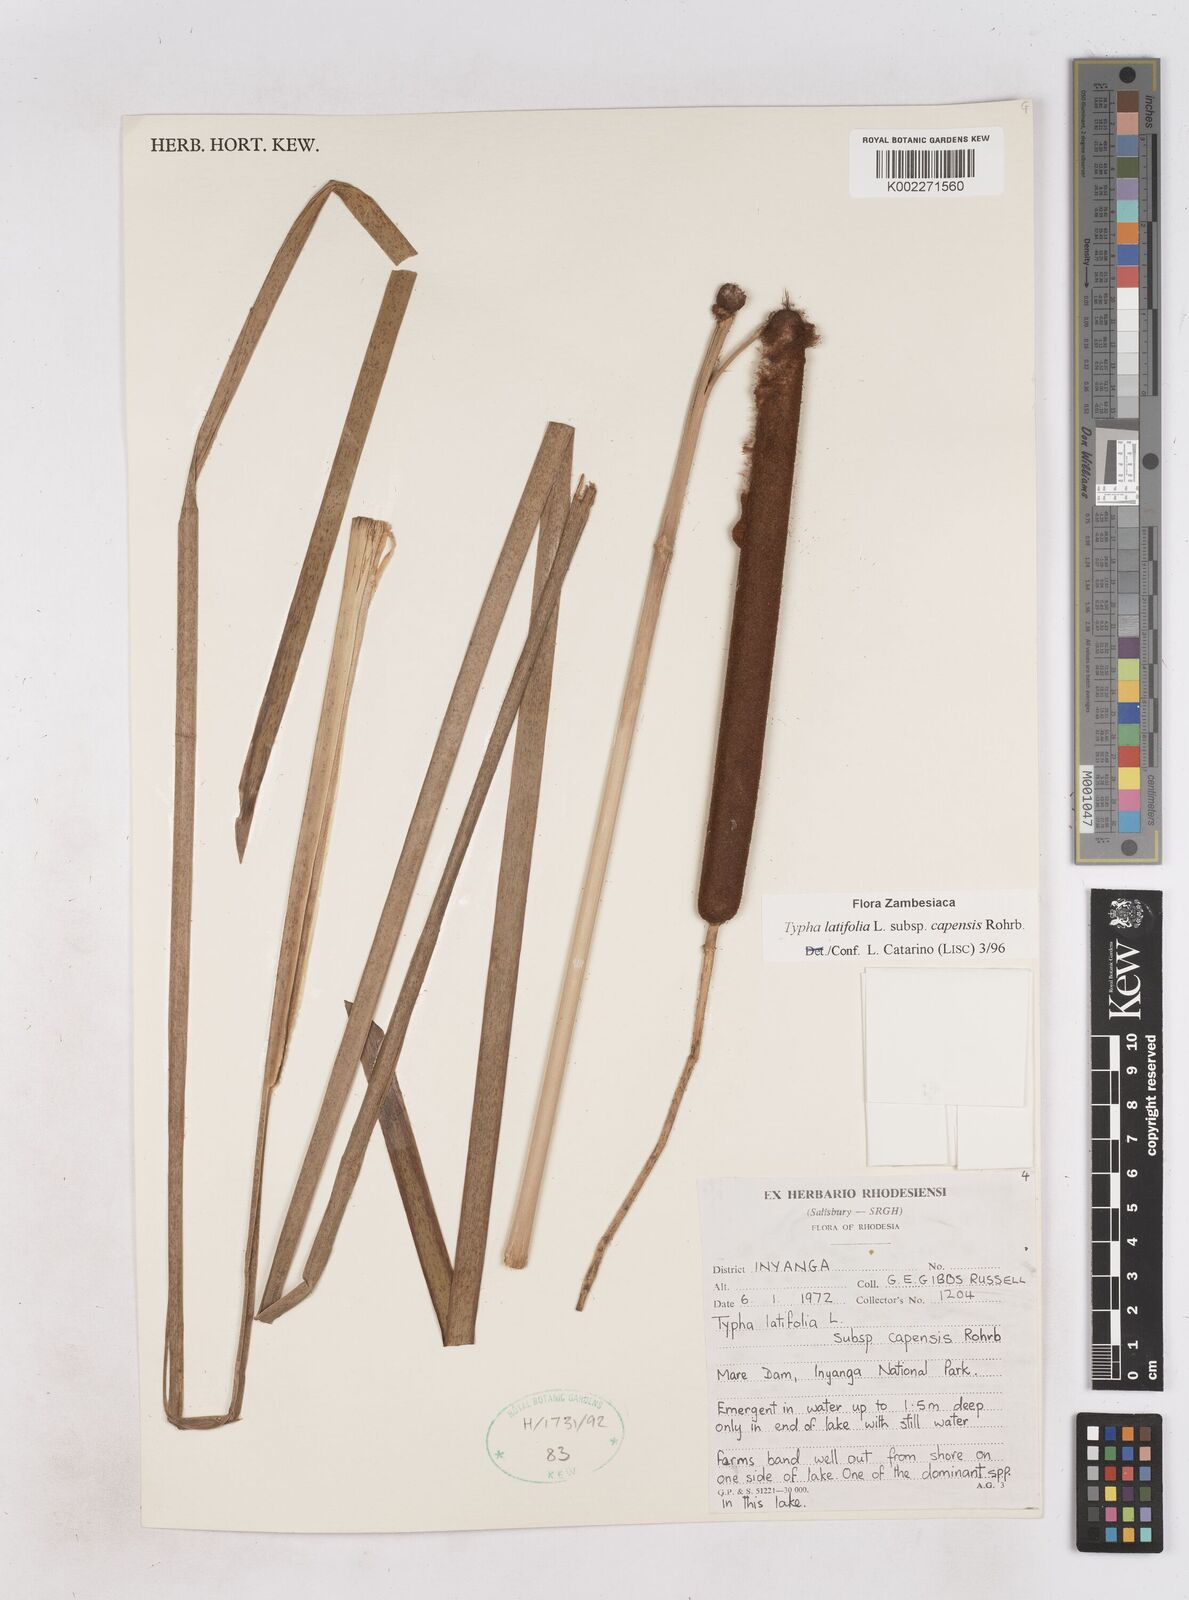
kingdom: Plantae
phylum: Tracheophyta
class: Liliopsida
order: Poales
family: Typhaceae
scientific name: Typhaceae
